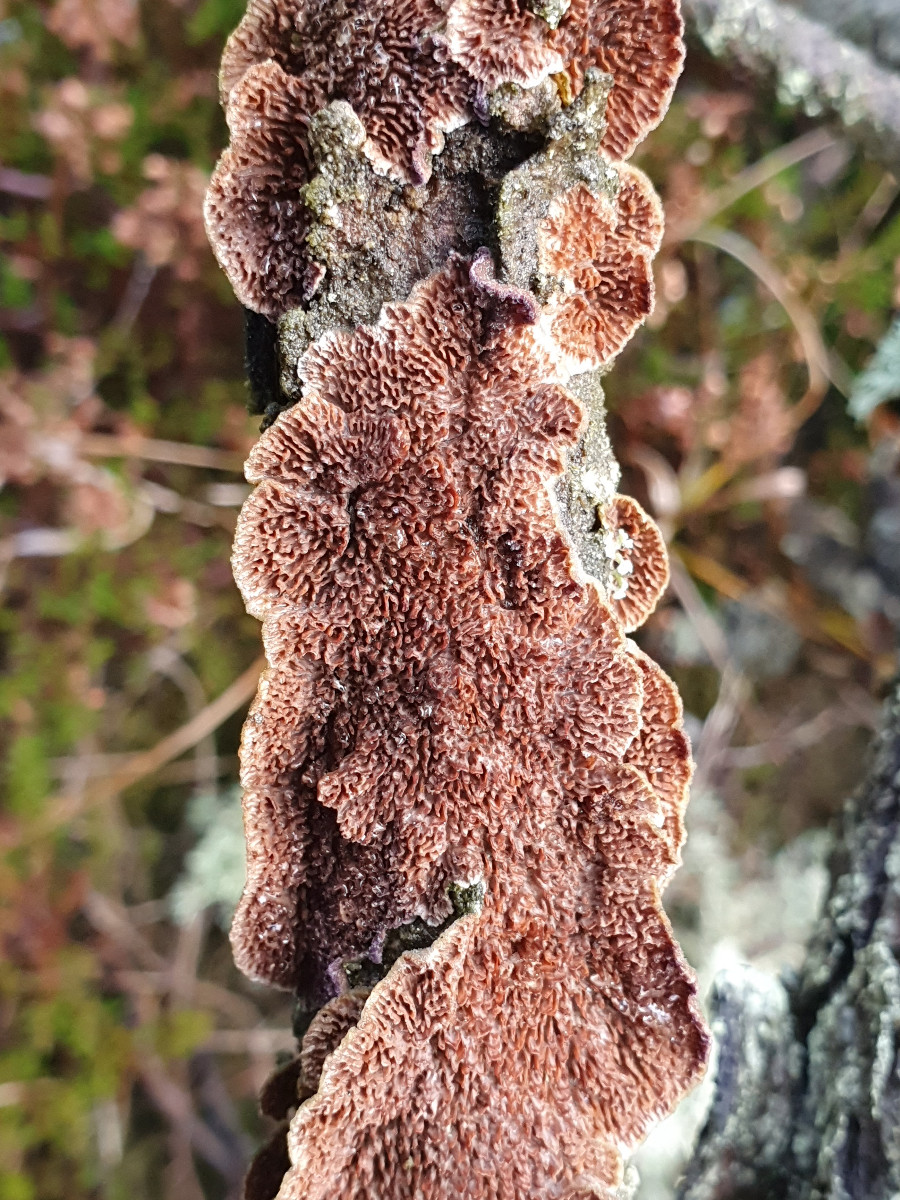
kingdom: Fungi
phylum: Basidiomycota
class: Agaricomycetes
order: Hymenochaetales
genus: Trichaptum
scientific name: Trichaptum fuscoviolaceum
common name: tandet violporesvamp
